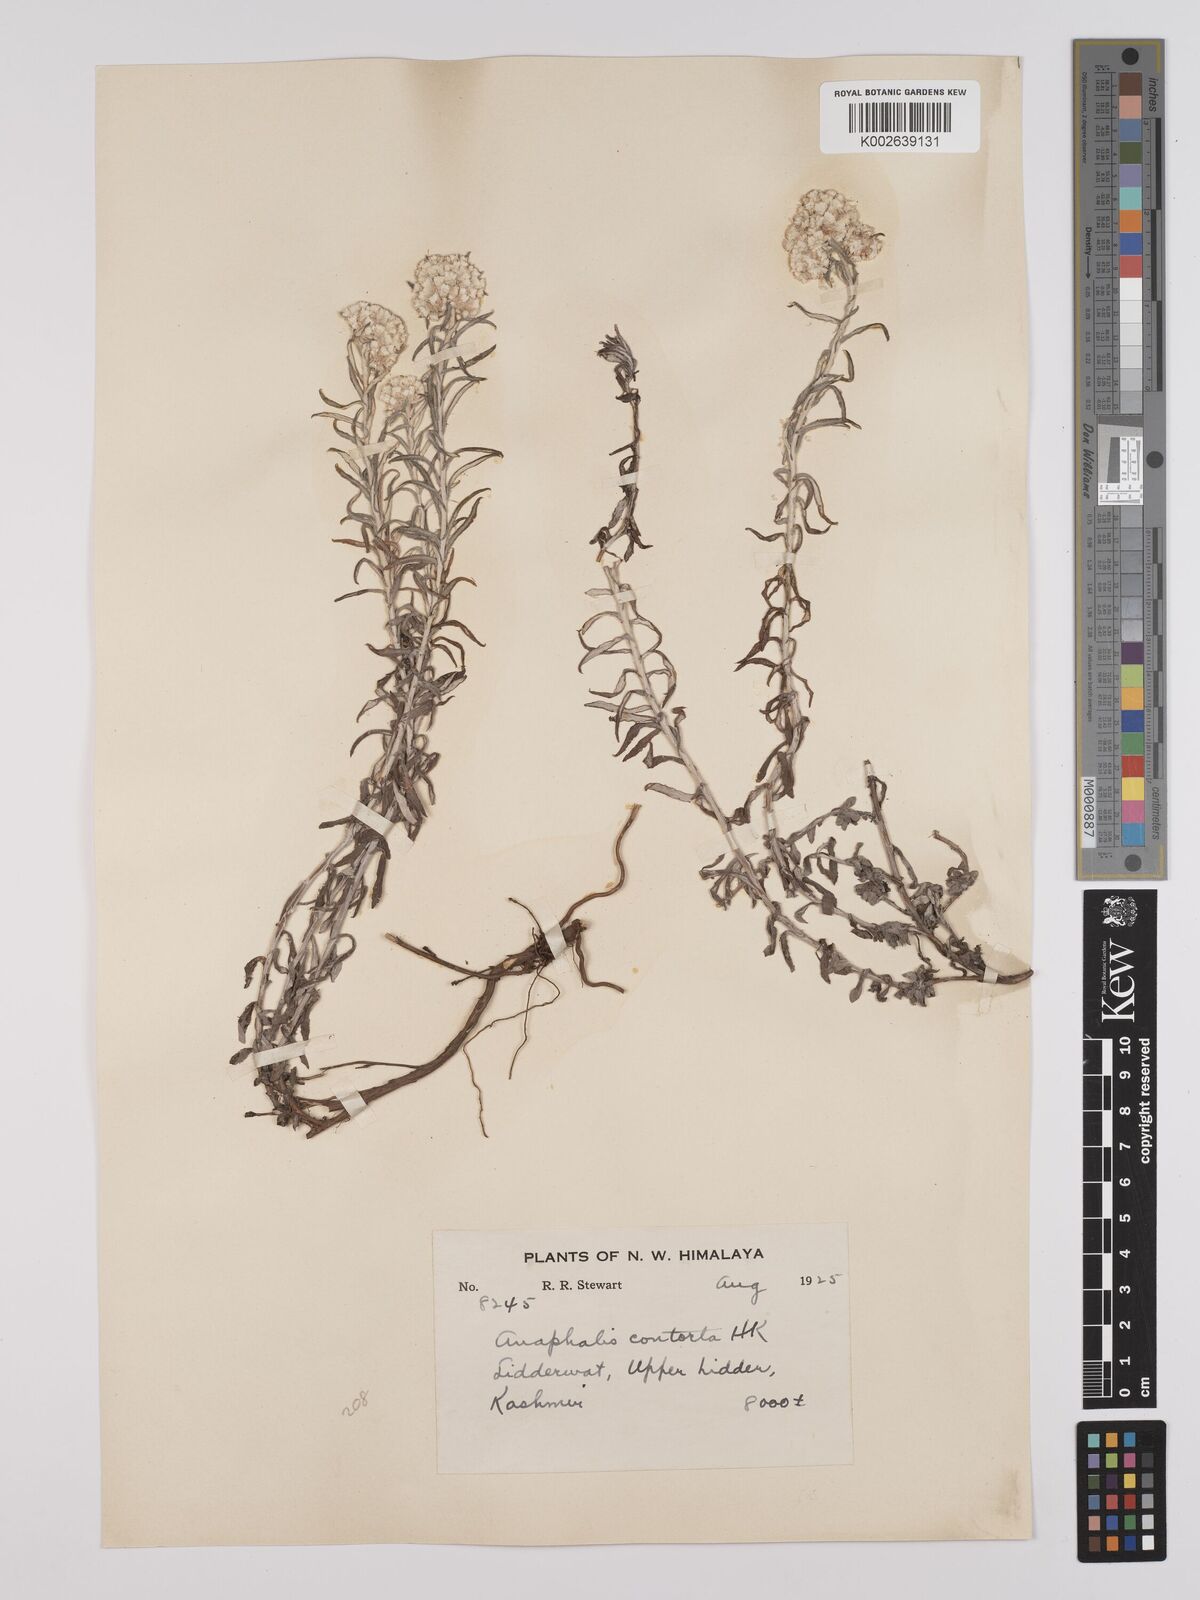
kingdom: Plantae
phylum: Tracheophyta
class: Magnoliopsida
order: Asterales
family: Asteraceae
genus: Anaphalis
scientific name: Anaphalis contorta
